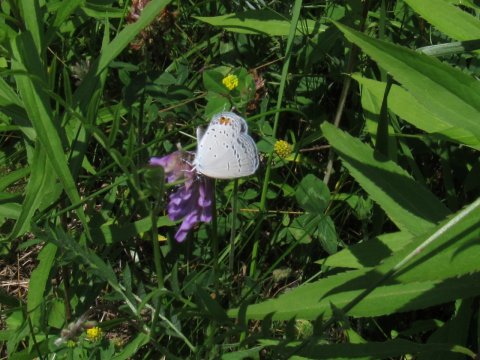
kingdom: Animalia
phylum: Arthropoda
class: Insecta
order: Lepidoptera
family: Lycaenidae
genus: Elkalyce
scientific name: Elkalyce comyntas
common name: Eastern Tailed-Blue
